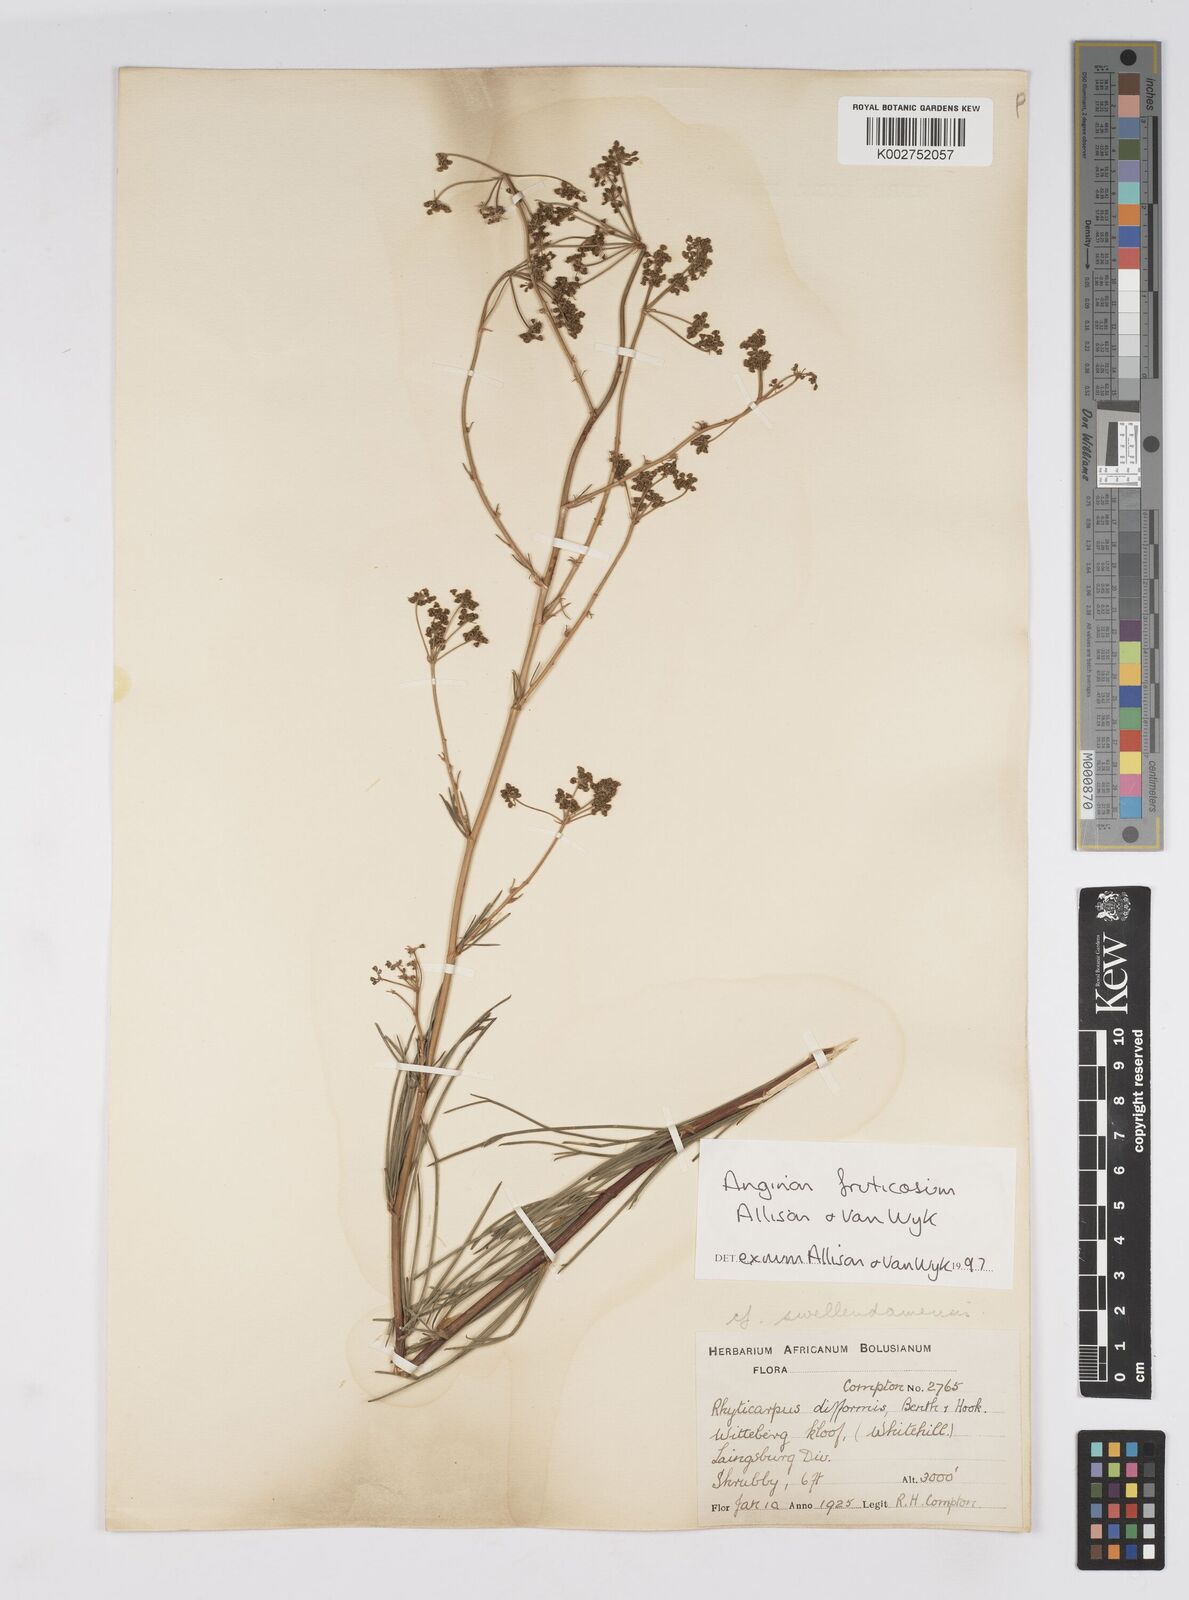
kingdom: Plantae
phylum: Tracheophyta
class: Magnoliopsida
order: Apiales
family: Apiaceae
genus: Anginon
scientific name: Anginon fruticosum
